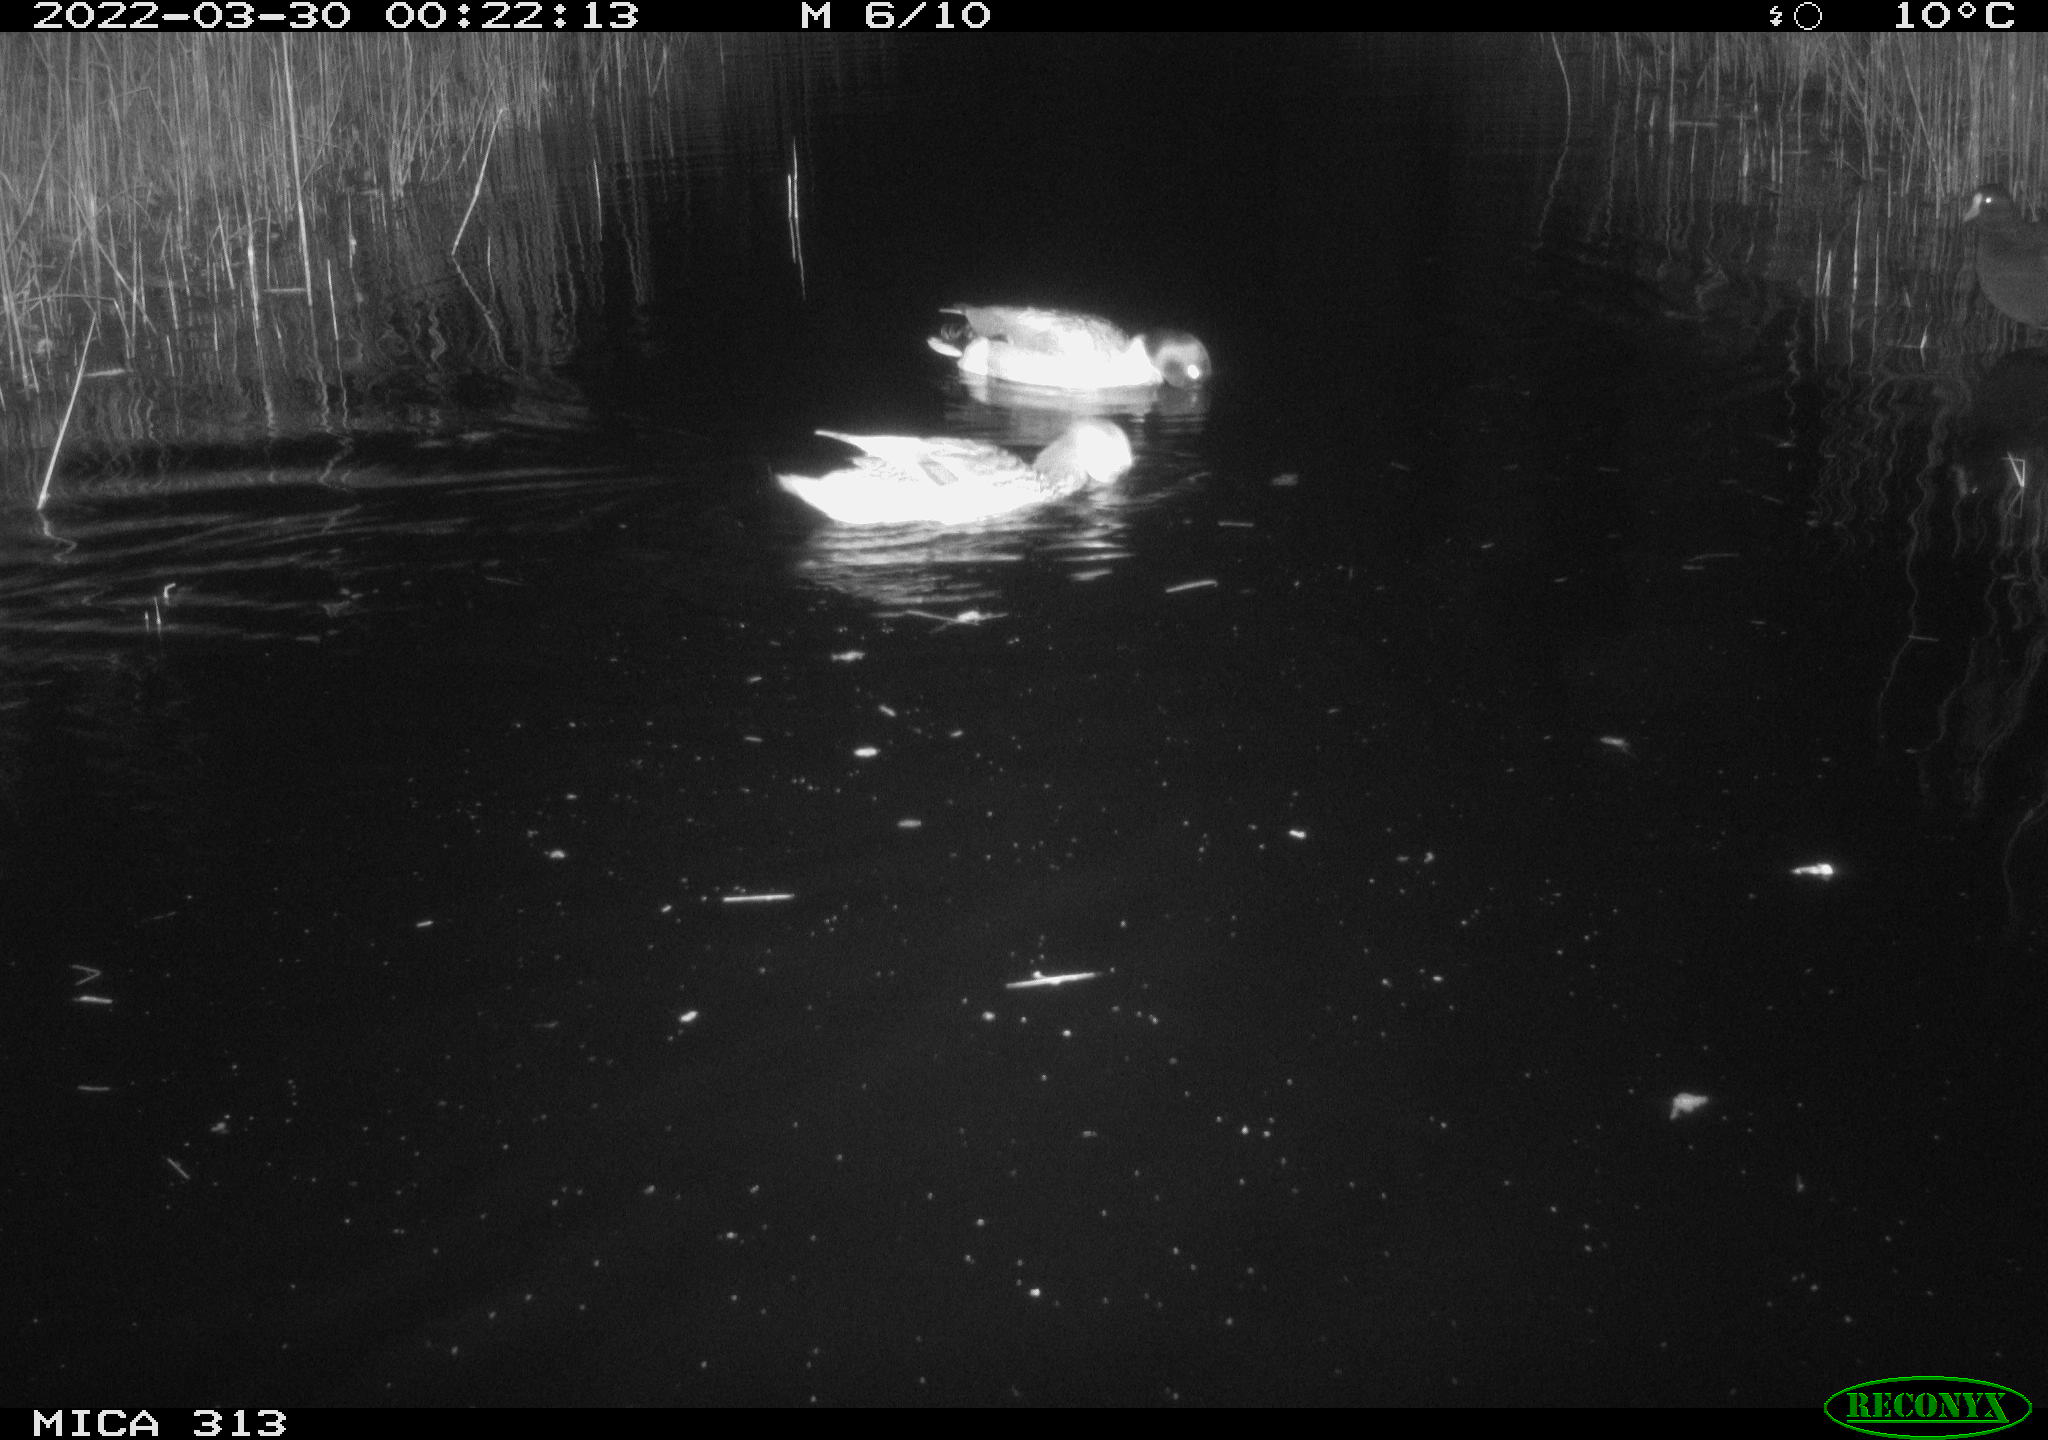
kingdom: Animalia
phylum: Chordata
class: Aves
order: Anseriformes
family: Anatidae
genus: Anas
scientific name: Anas platyrhynchos
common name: Mallard
